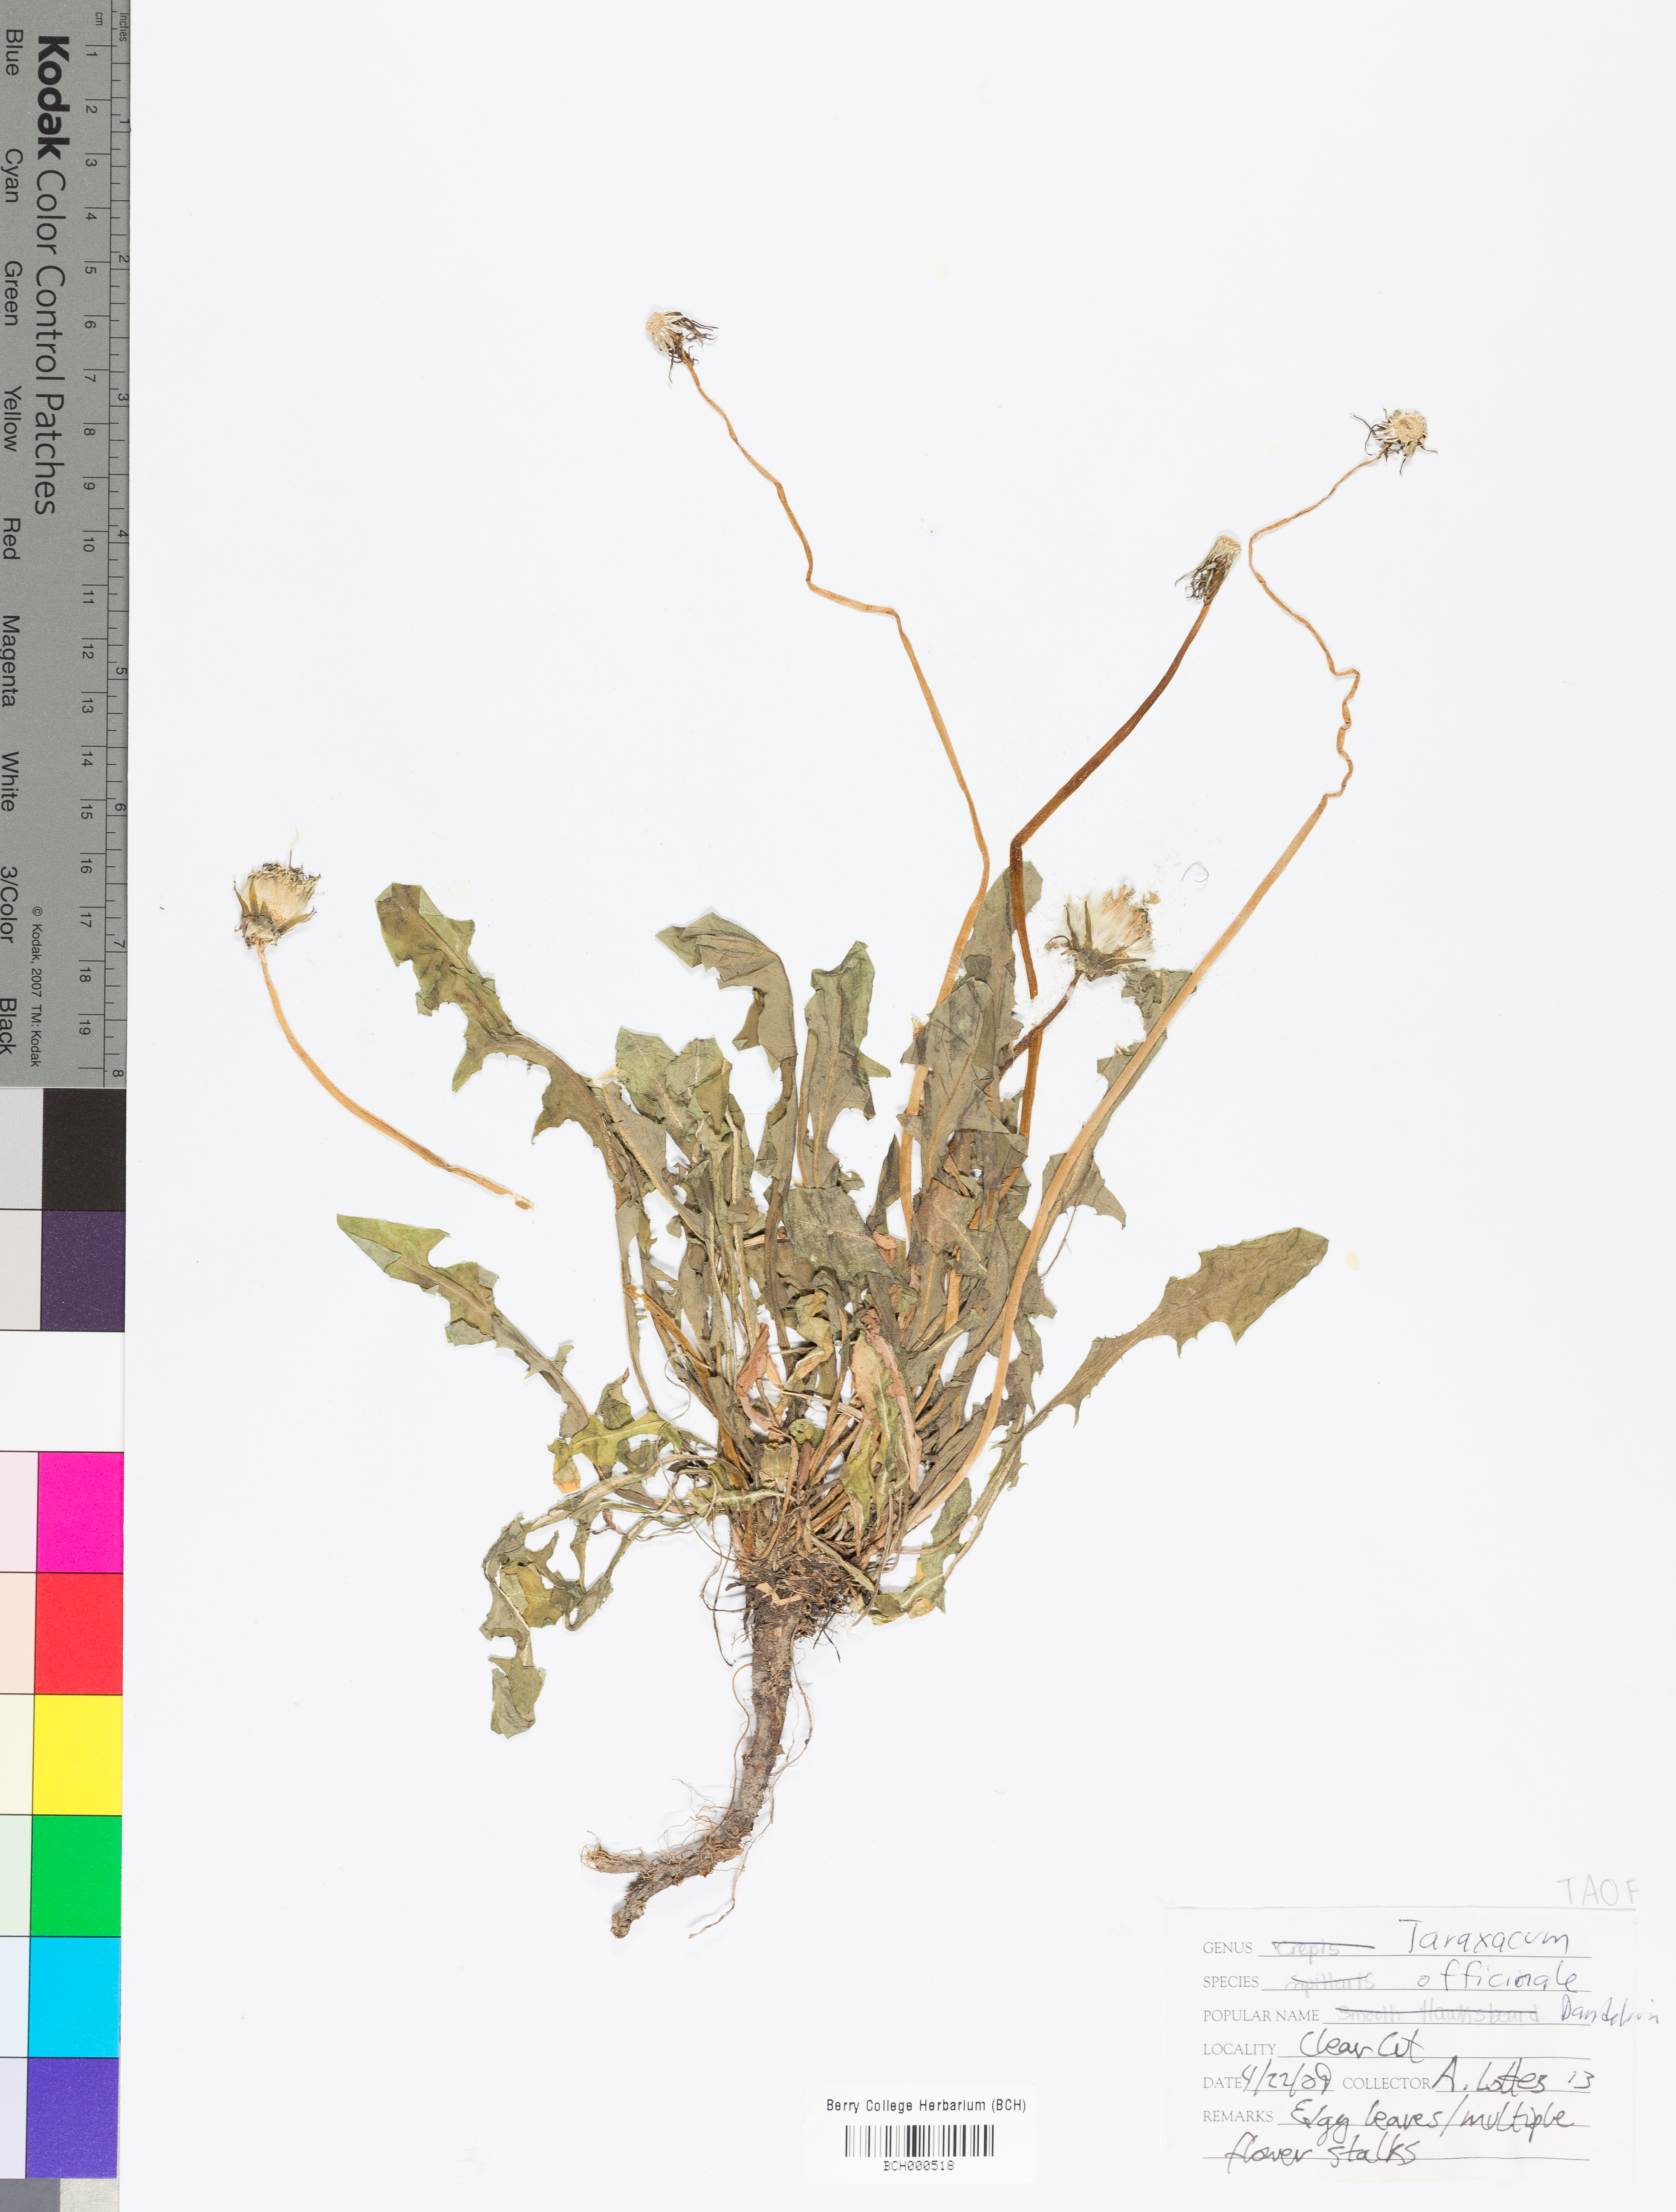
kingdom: Plantae
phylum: Tracheophyta
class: Magnoliopsida
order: Asterales
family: Asteraceae
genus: Taraxacum
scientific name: Taraxacum officinale
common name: Common dandelion
